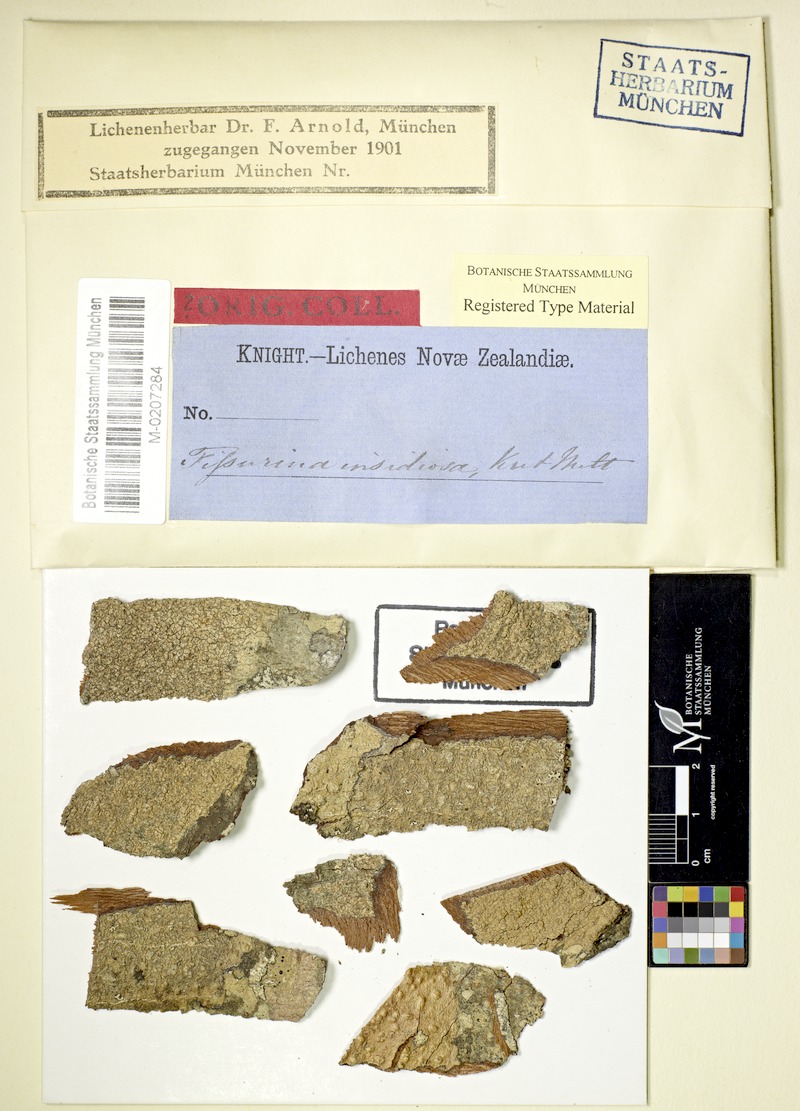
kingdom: Fungi
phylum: Ascomycota
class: Lecanoromycetes
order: Ostropales
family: Graphidaceae
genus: Fissurina
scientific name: Fissurina insidiosa
